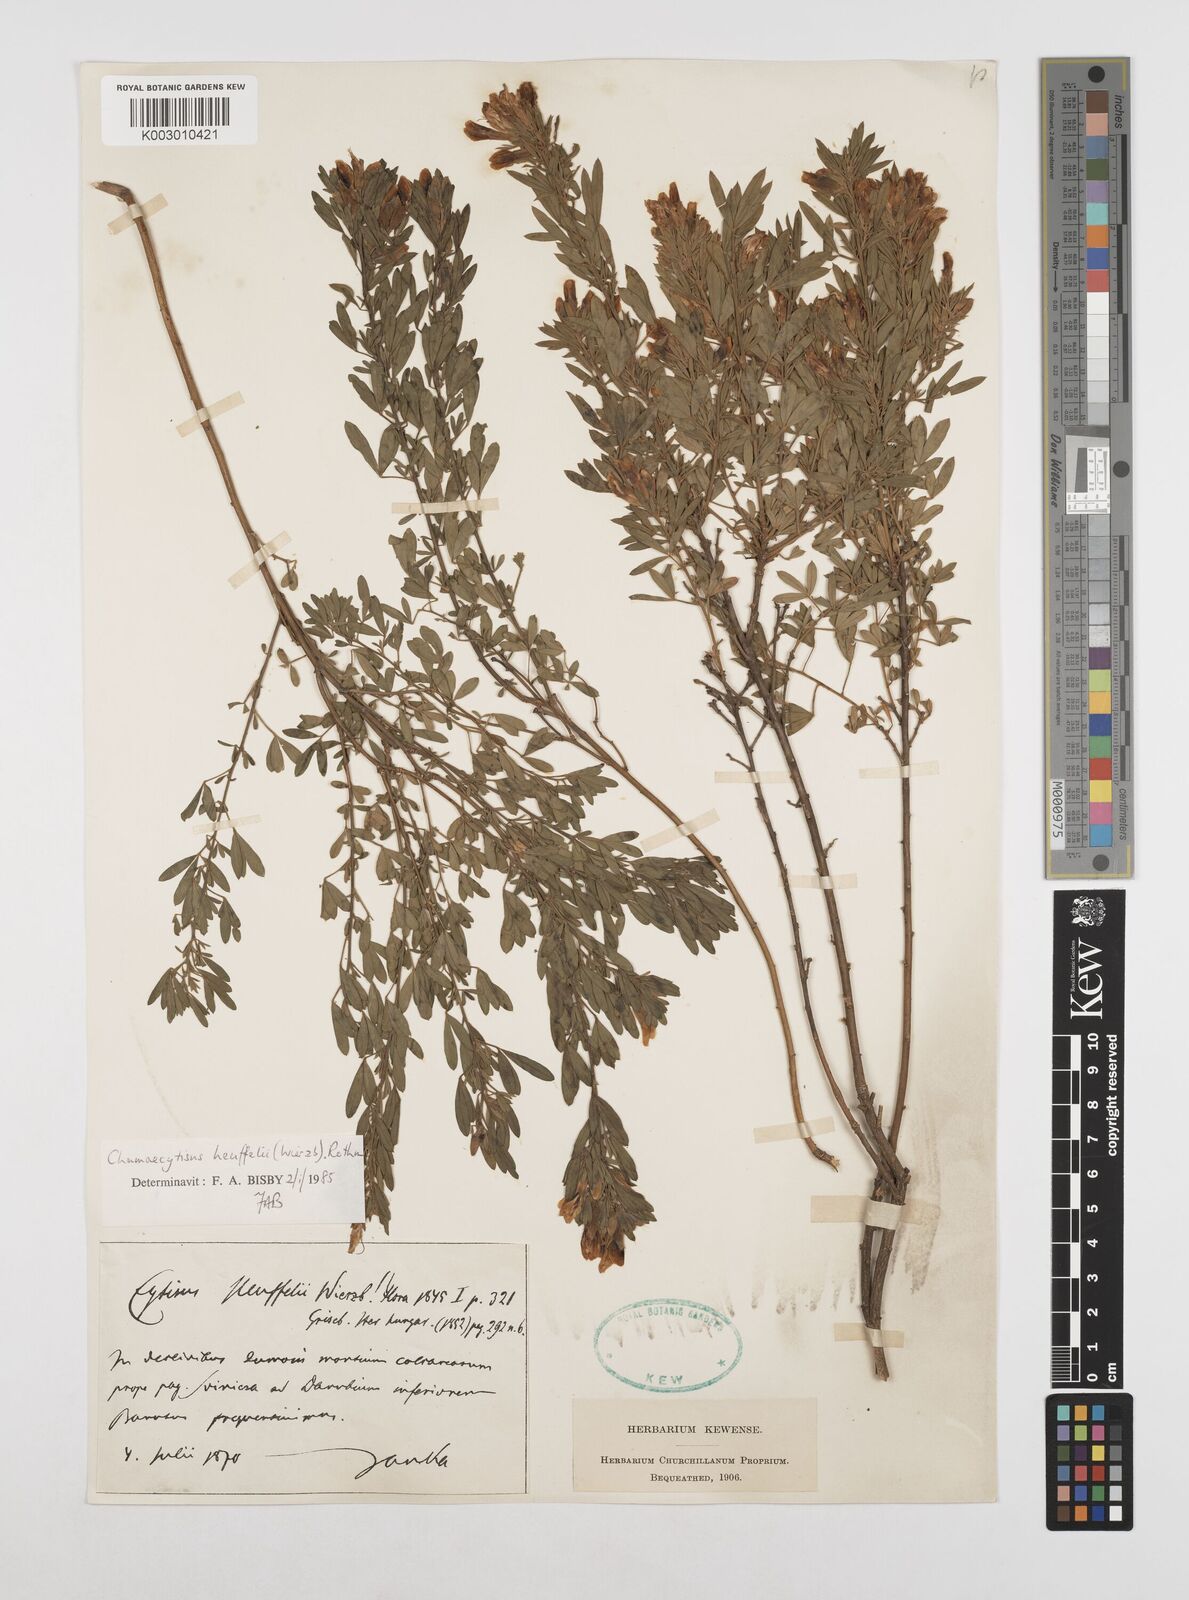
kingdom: Plantae
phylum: Tracheophyta
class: Magnoliopsida
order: Fabales
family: Fabaceae
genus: Cytisophyllum
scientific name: Cytisophyllum Cytisus heuffelii
